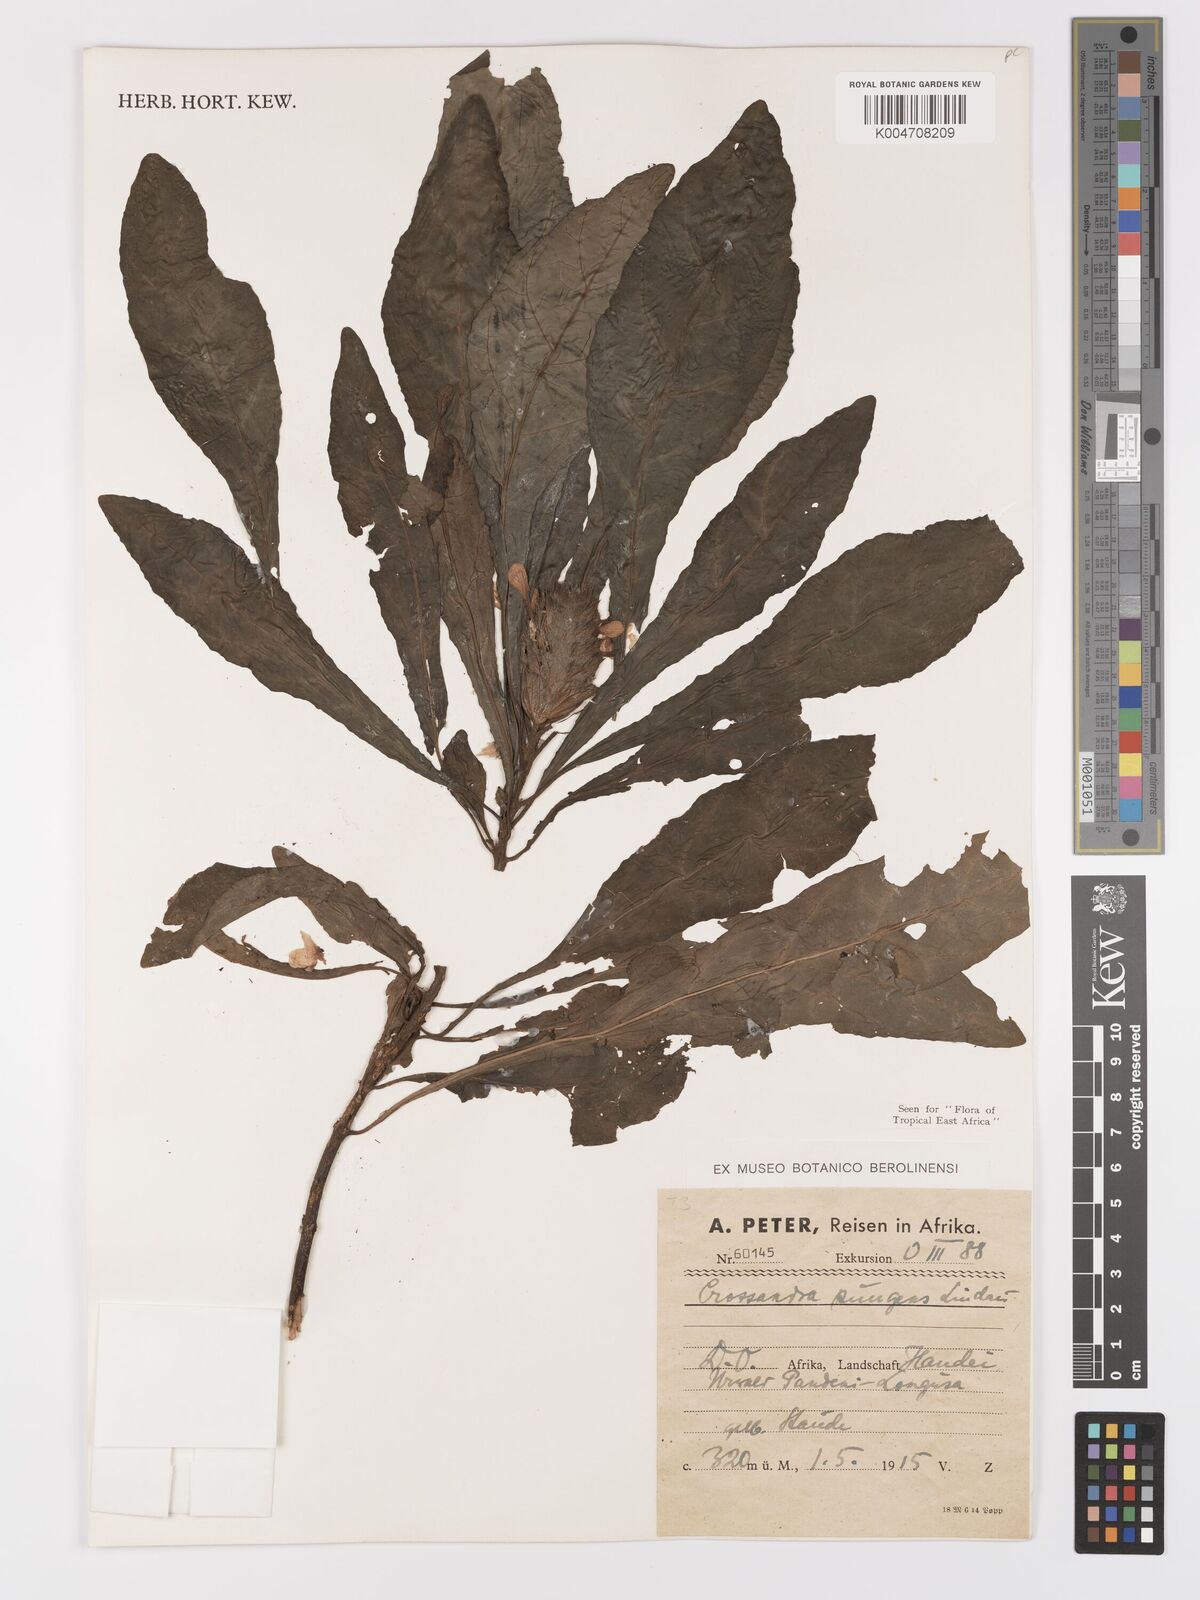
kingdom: Plantae
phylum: Tracheophyta
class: Magnoliopsida
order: Lamiales
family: Acanthaceae
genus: Crossandra
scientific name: Crossandra pungens
